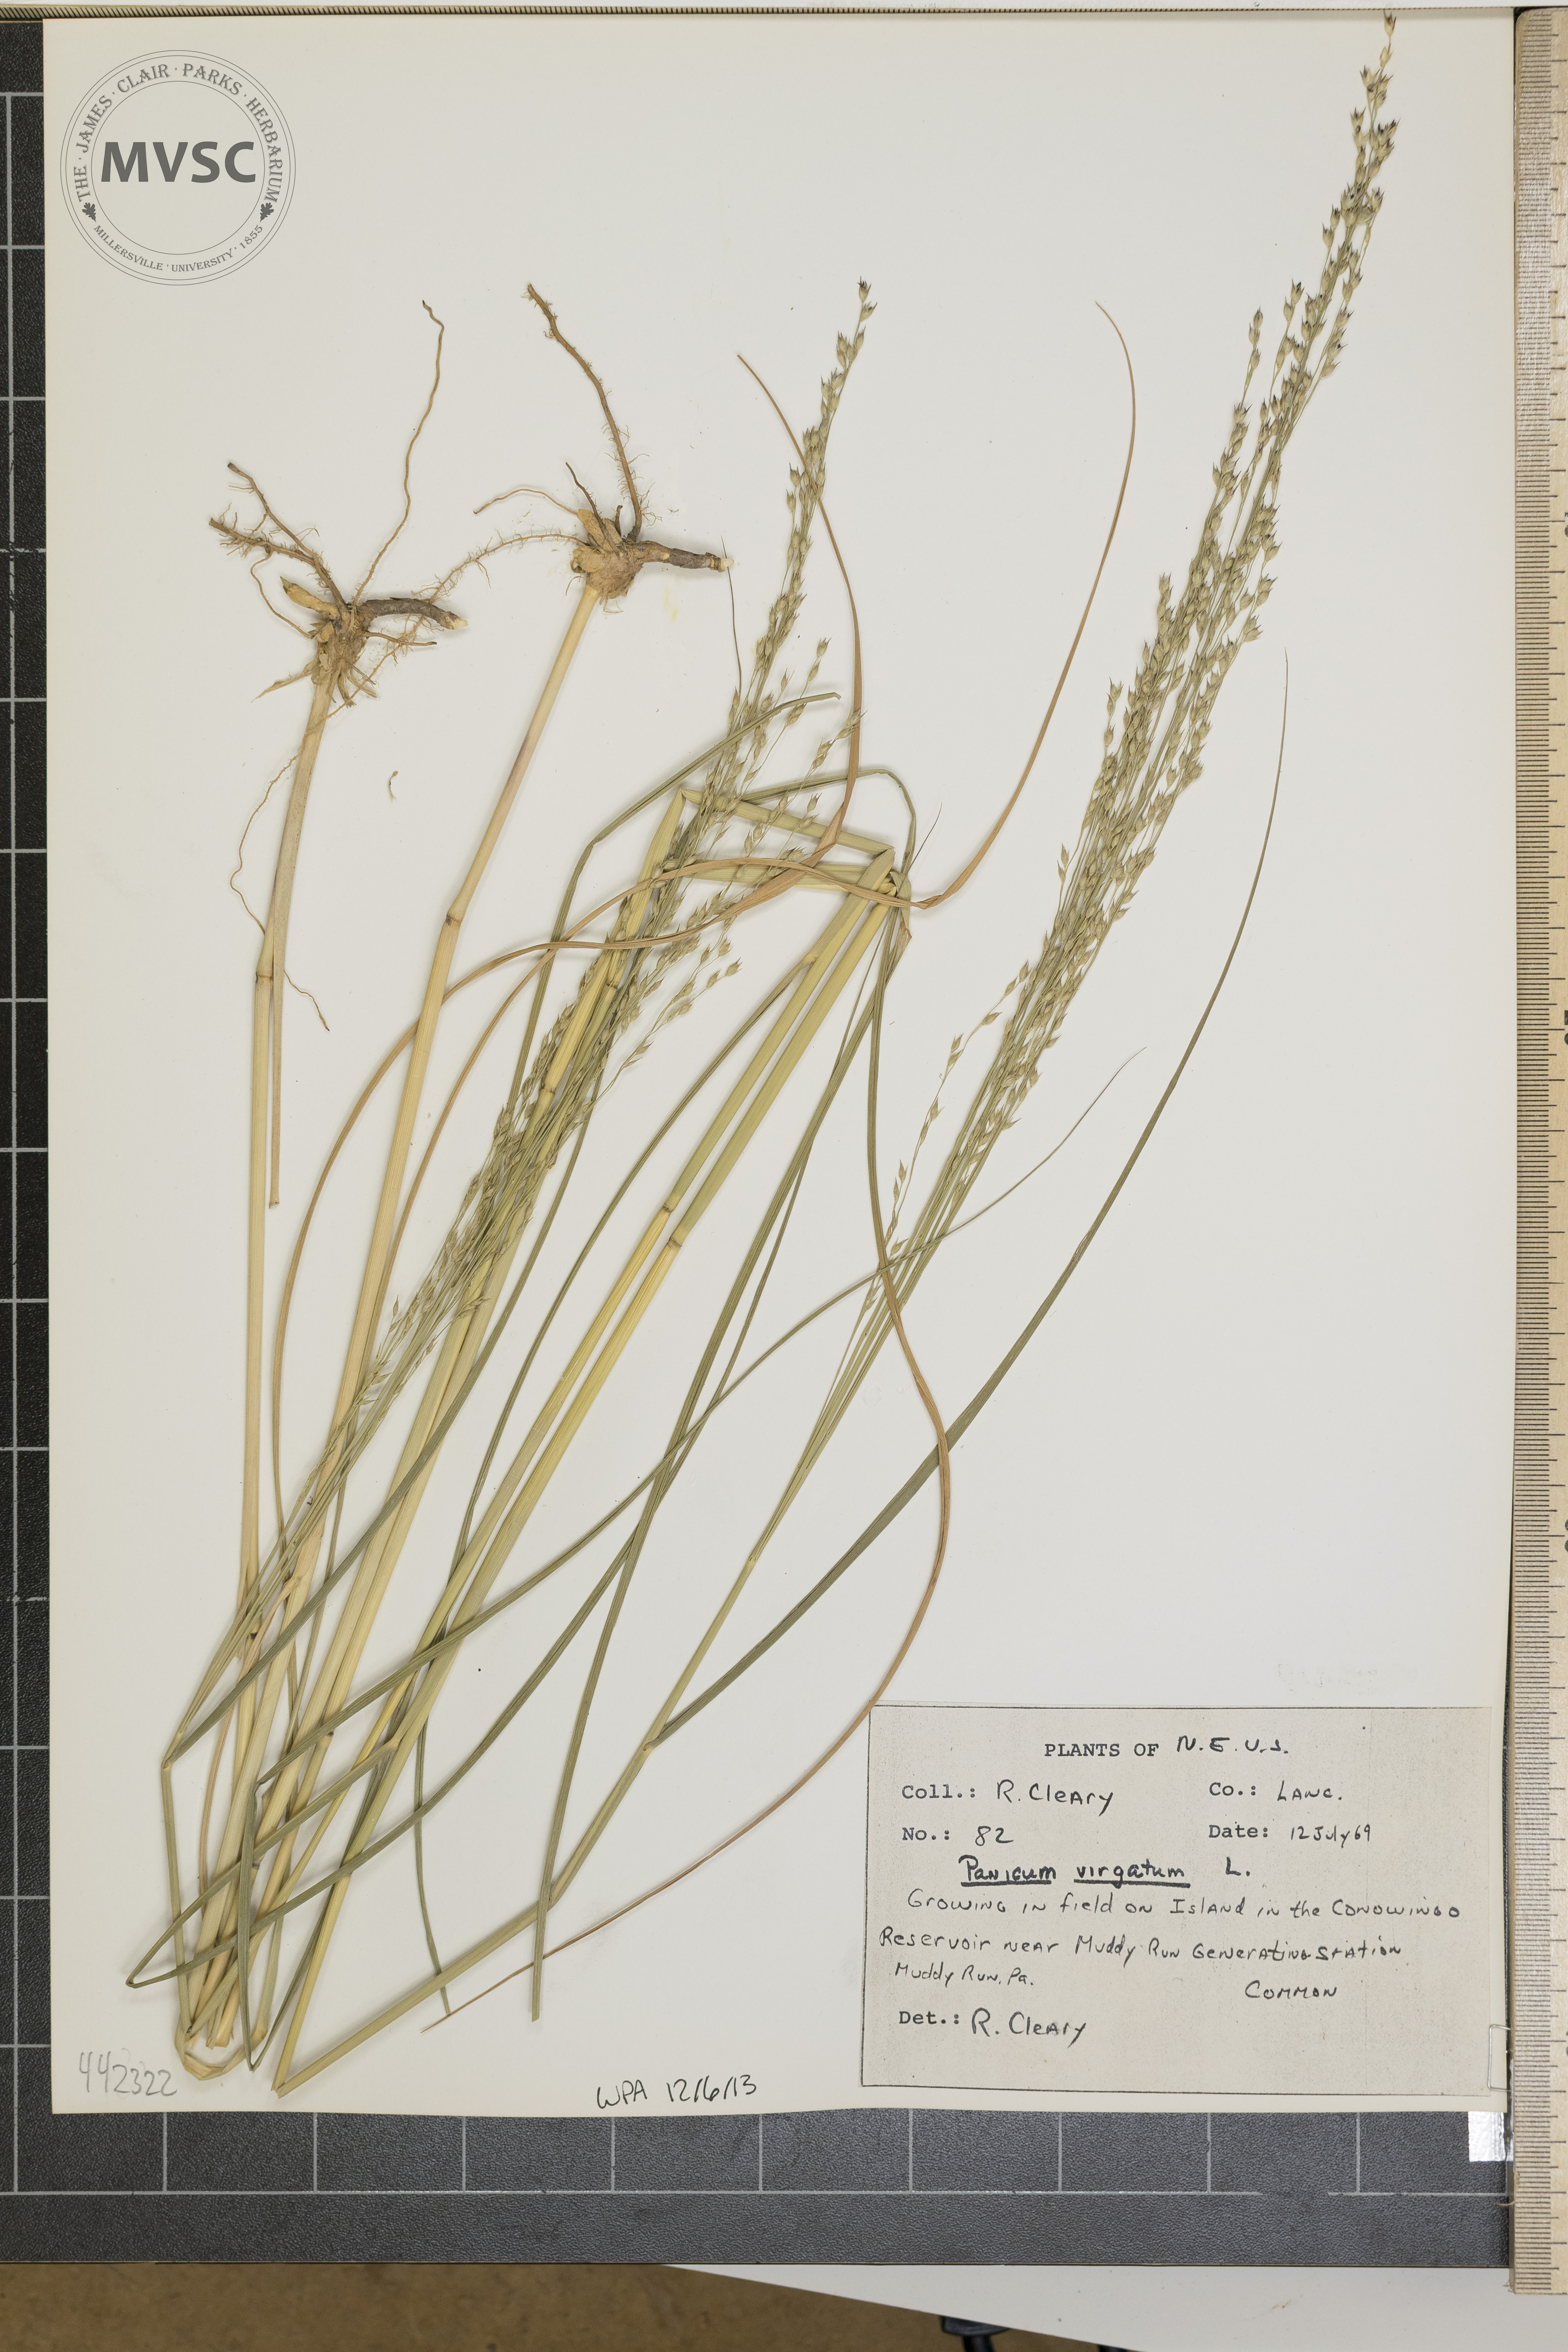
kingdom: Plantae
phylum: Tracheophyta
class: Liliopsida
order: Poales
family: Poaceae
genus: Panicum
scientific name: Panicum virgatum
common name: Switchgrass
